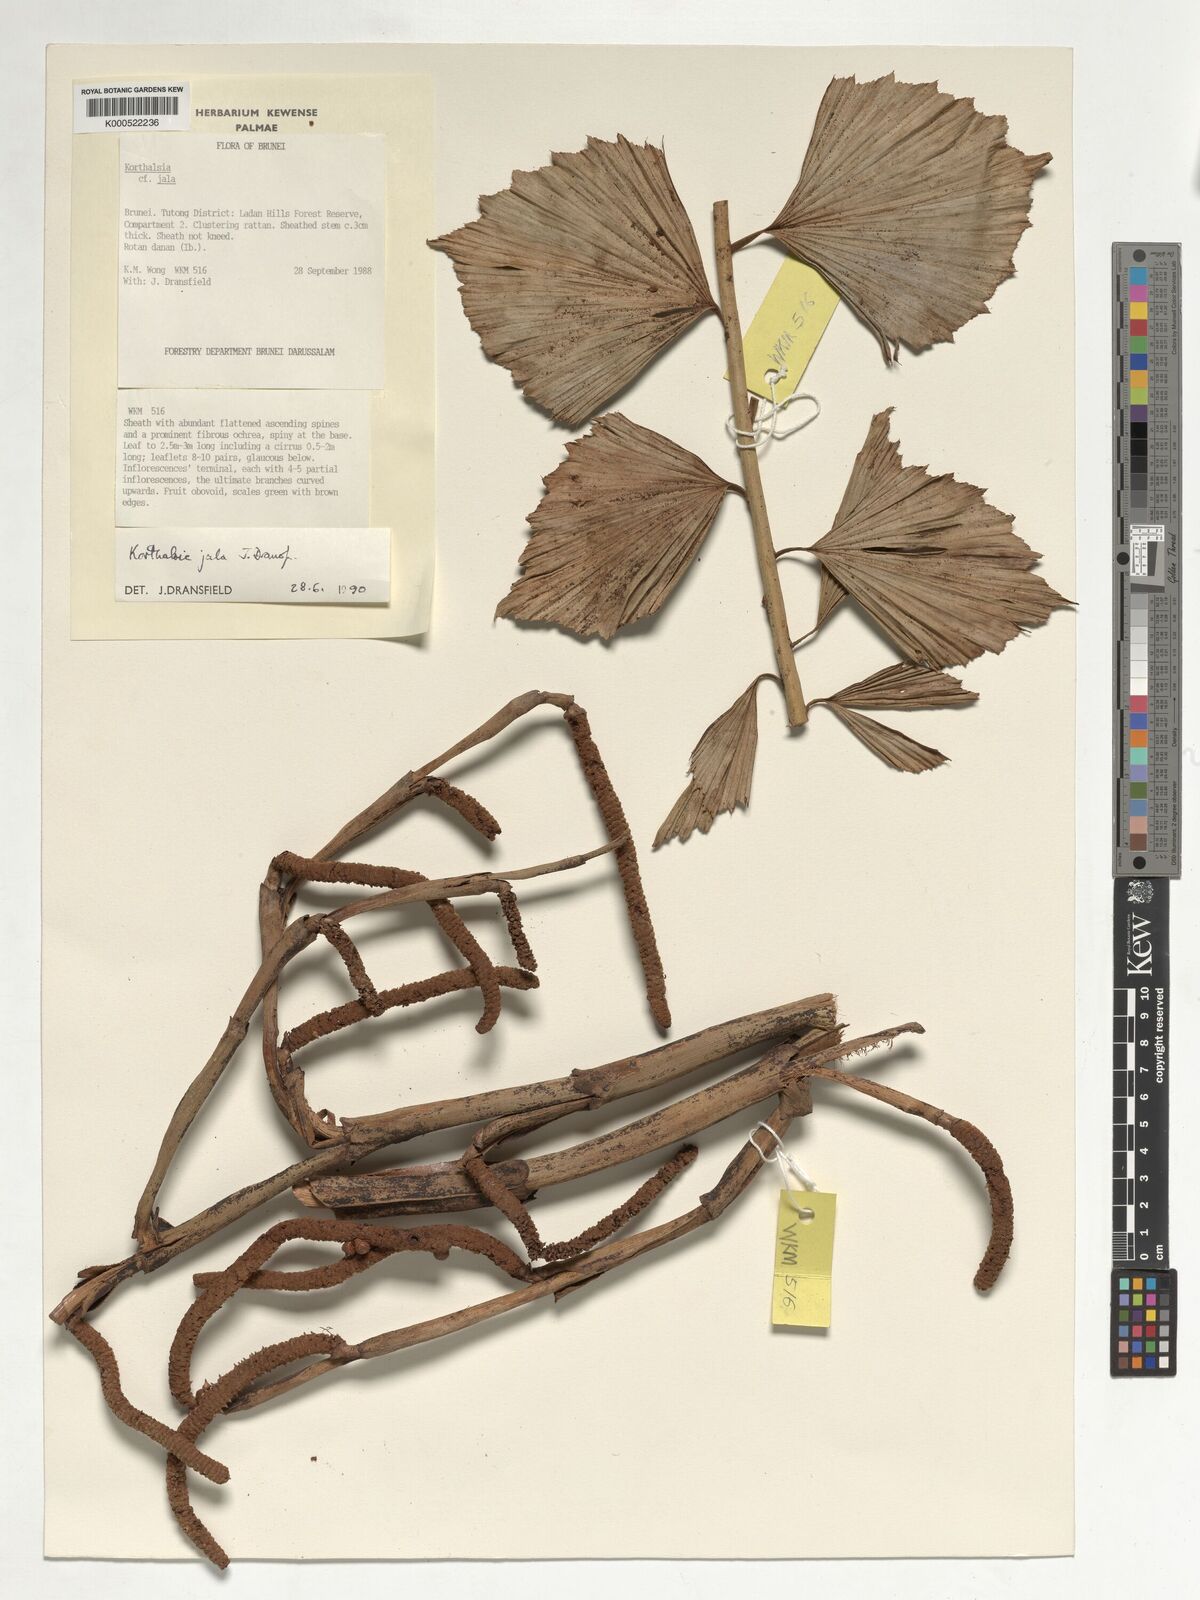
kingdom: Plantae
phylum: Tracheophyta
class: Liliopsida
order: Arecales
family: Arecaceae
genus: Korthalsia
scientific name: Korthalsia jala
